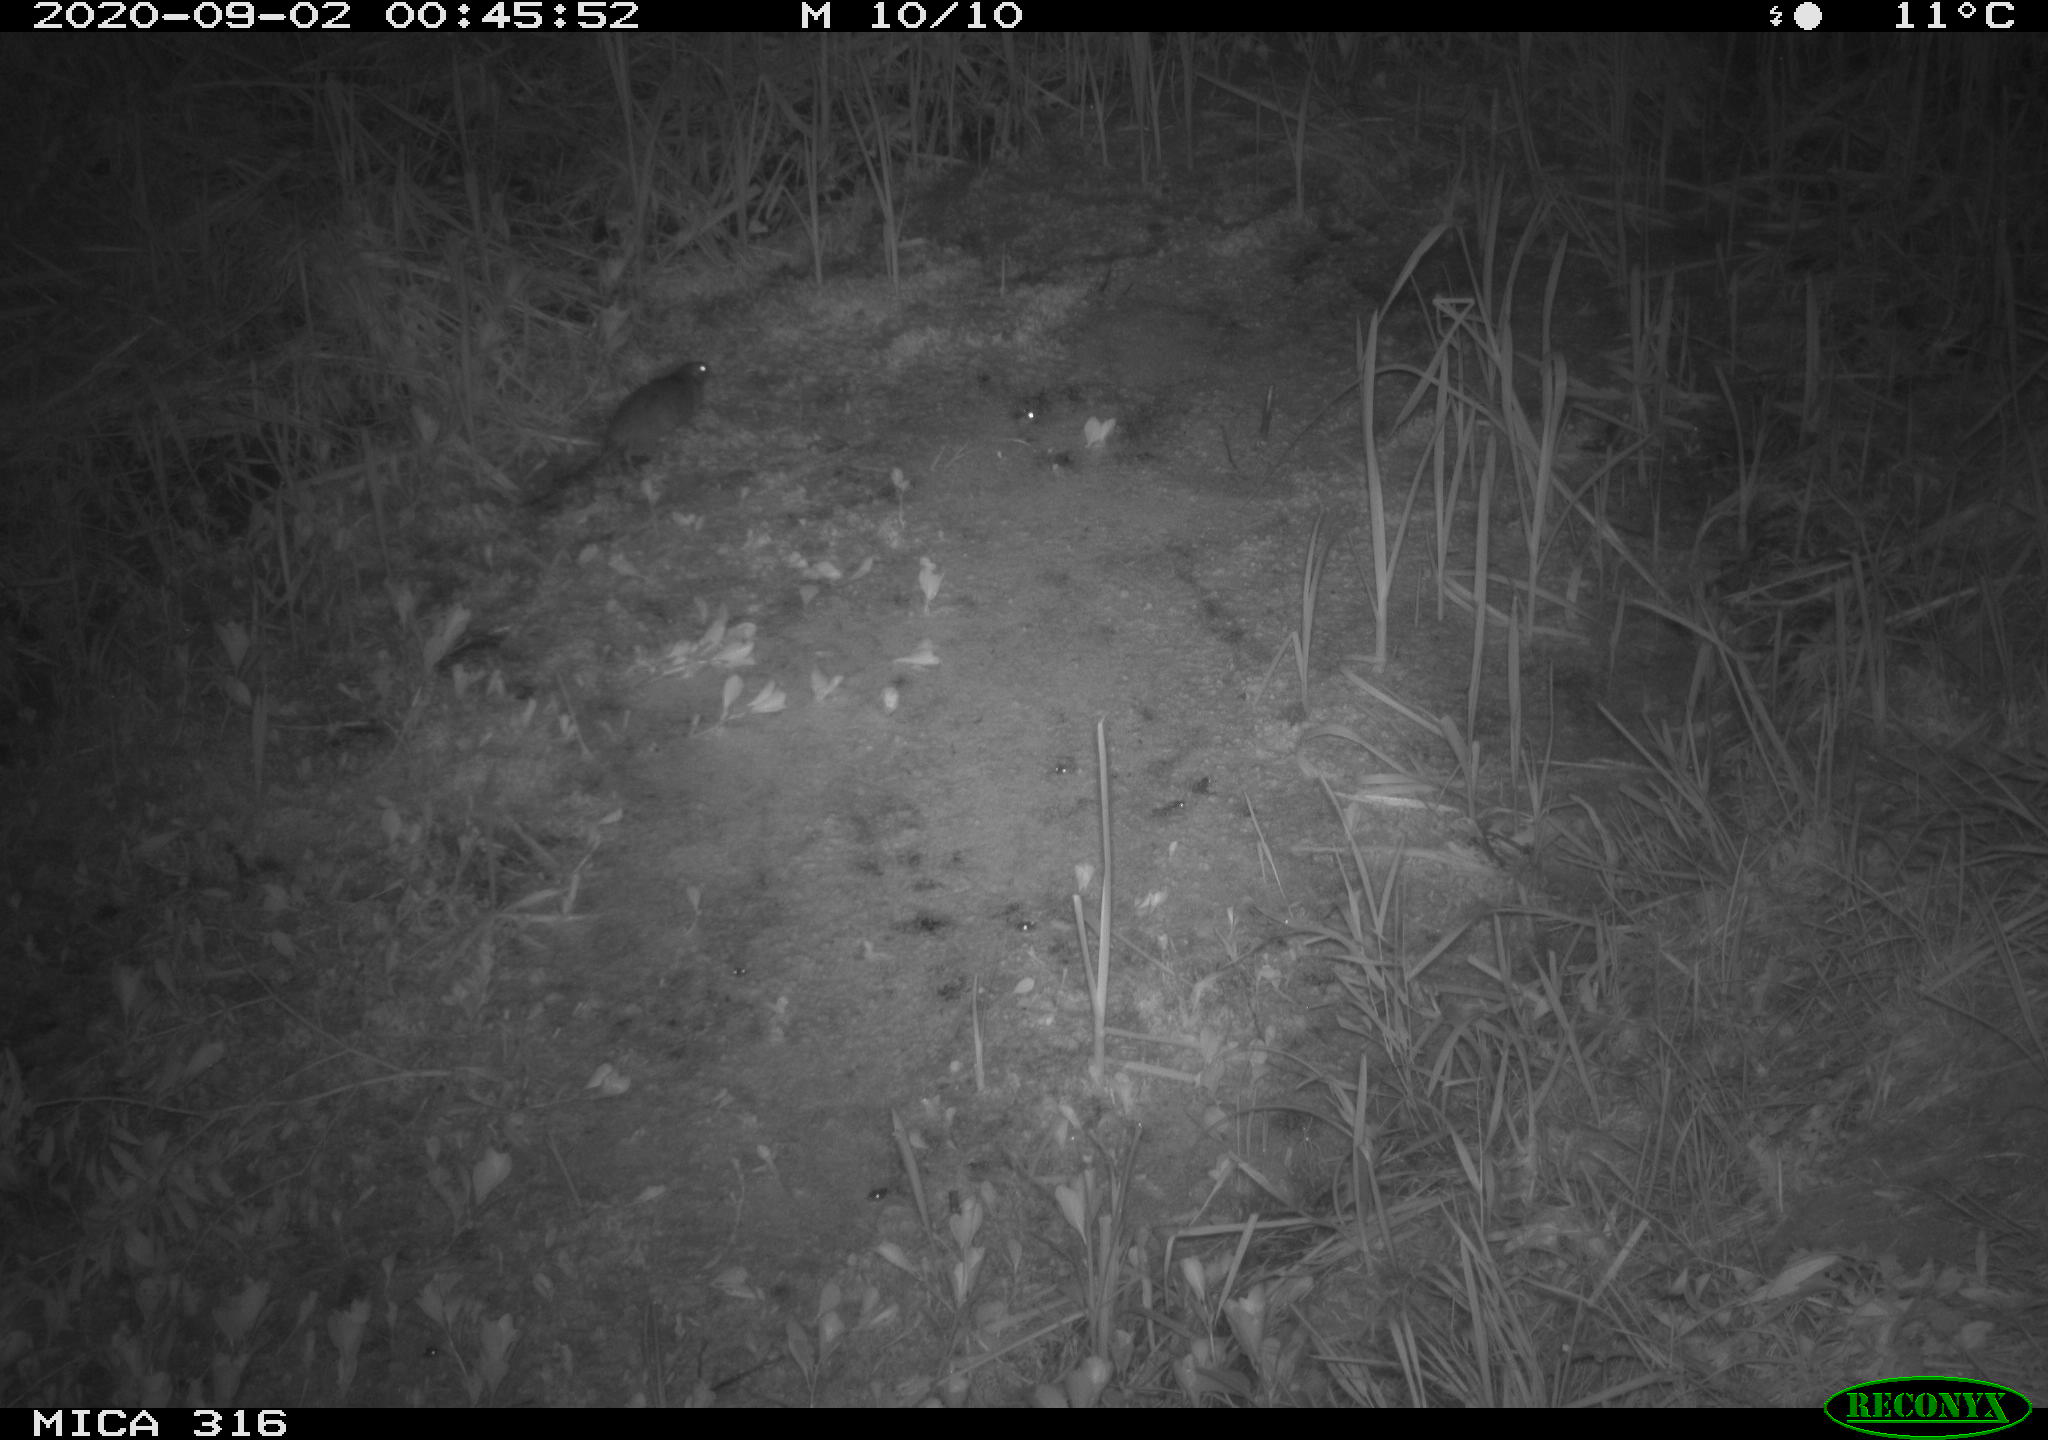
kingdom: Animalia
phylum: Chordata
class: Mammalia
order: Rodentia
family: Muridae
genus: Rattus
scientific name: Rattus norvegicus
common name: Brown rat
